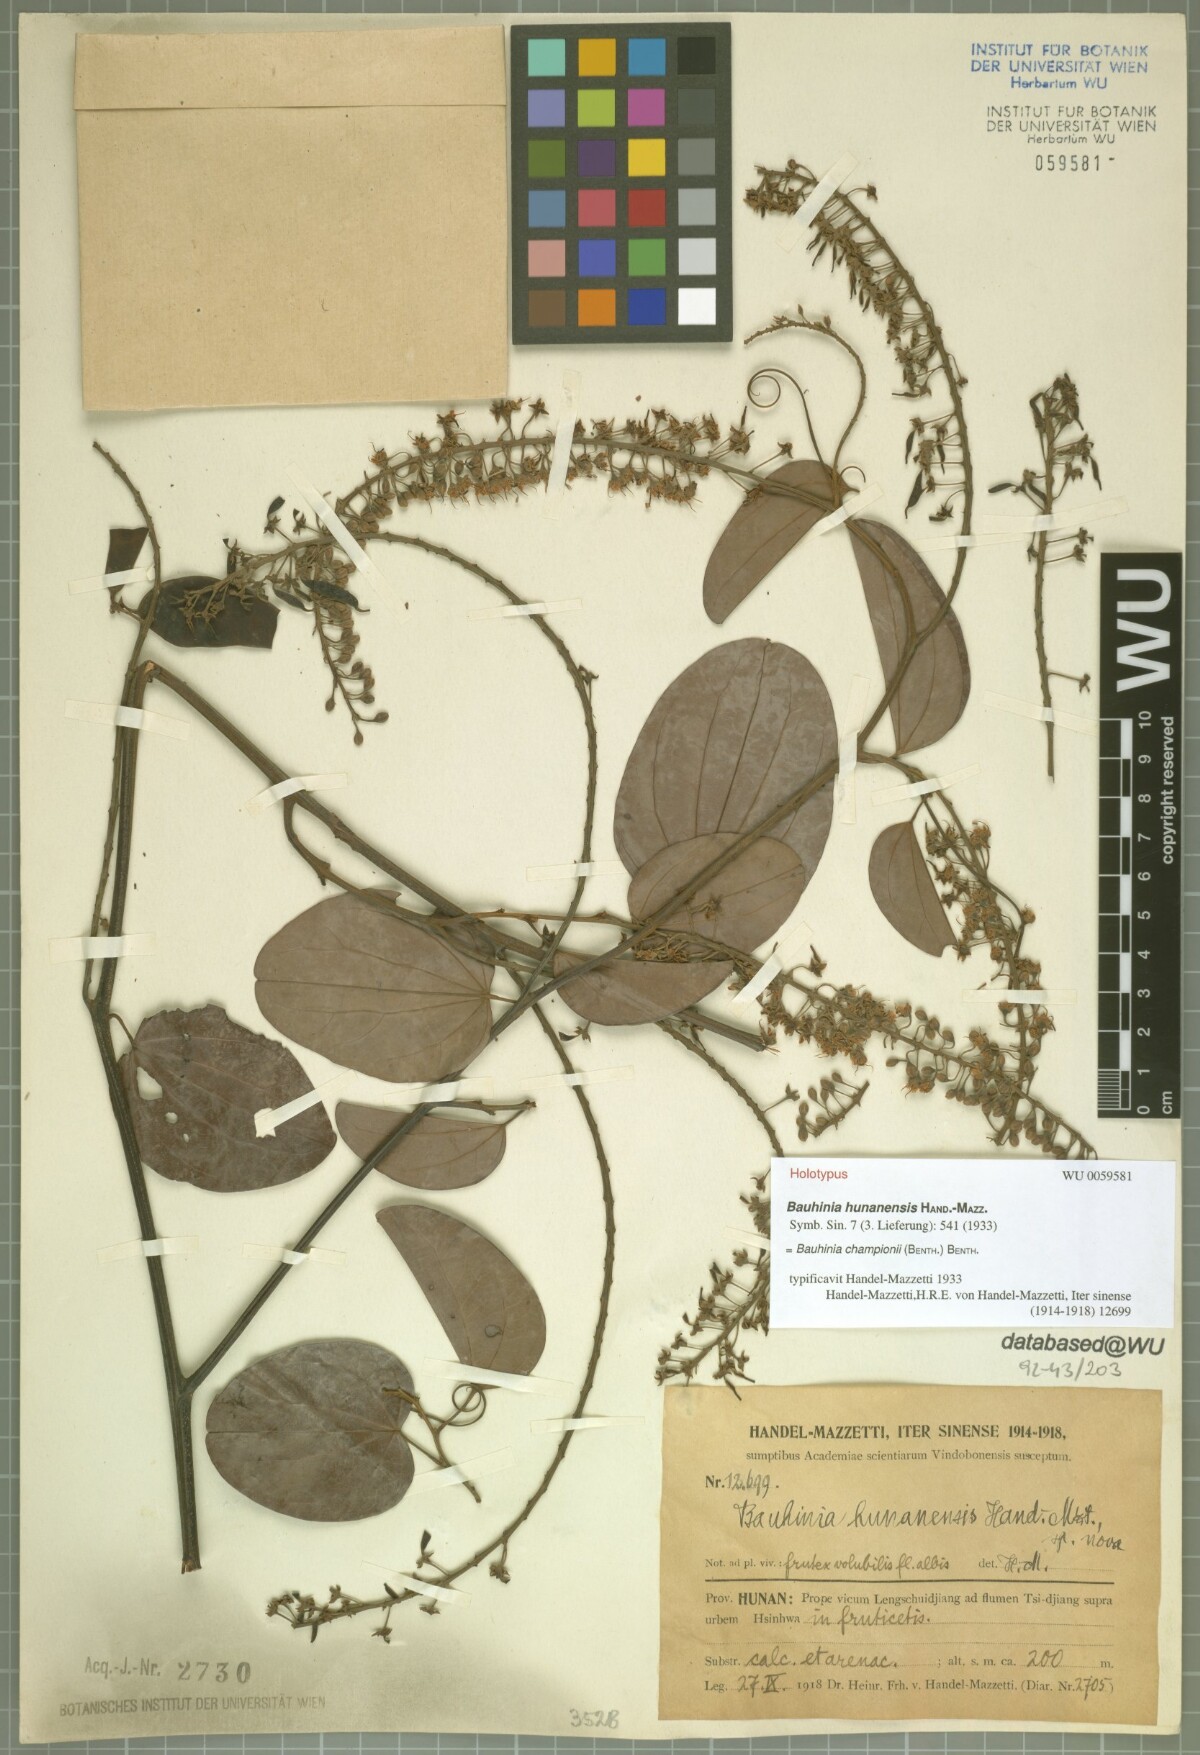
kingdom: Plantae
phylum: Tracheophyta
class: Magnoliopsida
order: Fabales
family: Fabaceae
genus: Phanera
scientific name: Phanera championii
